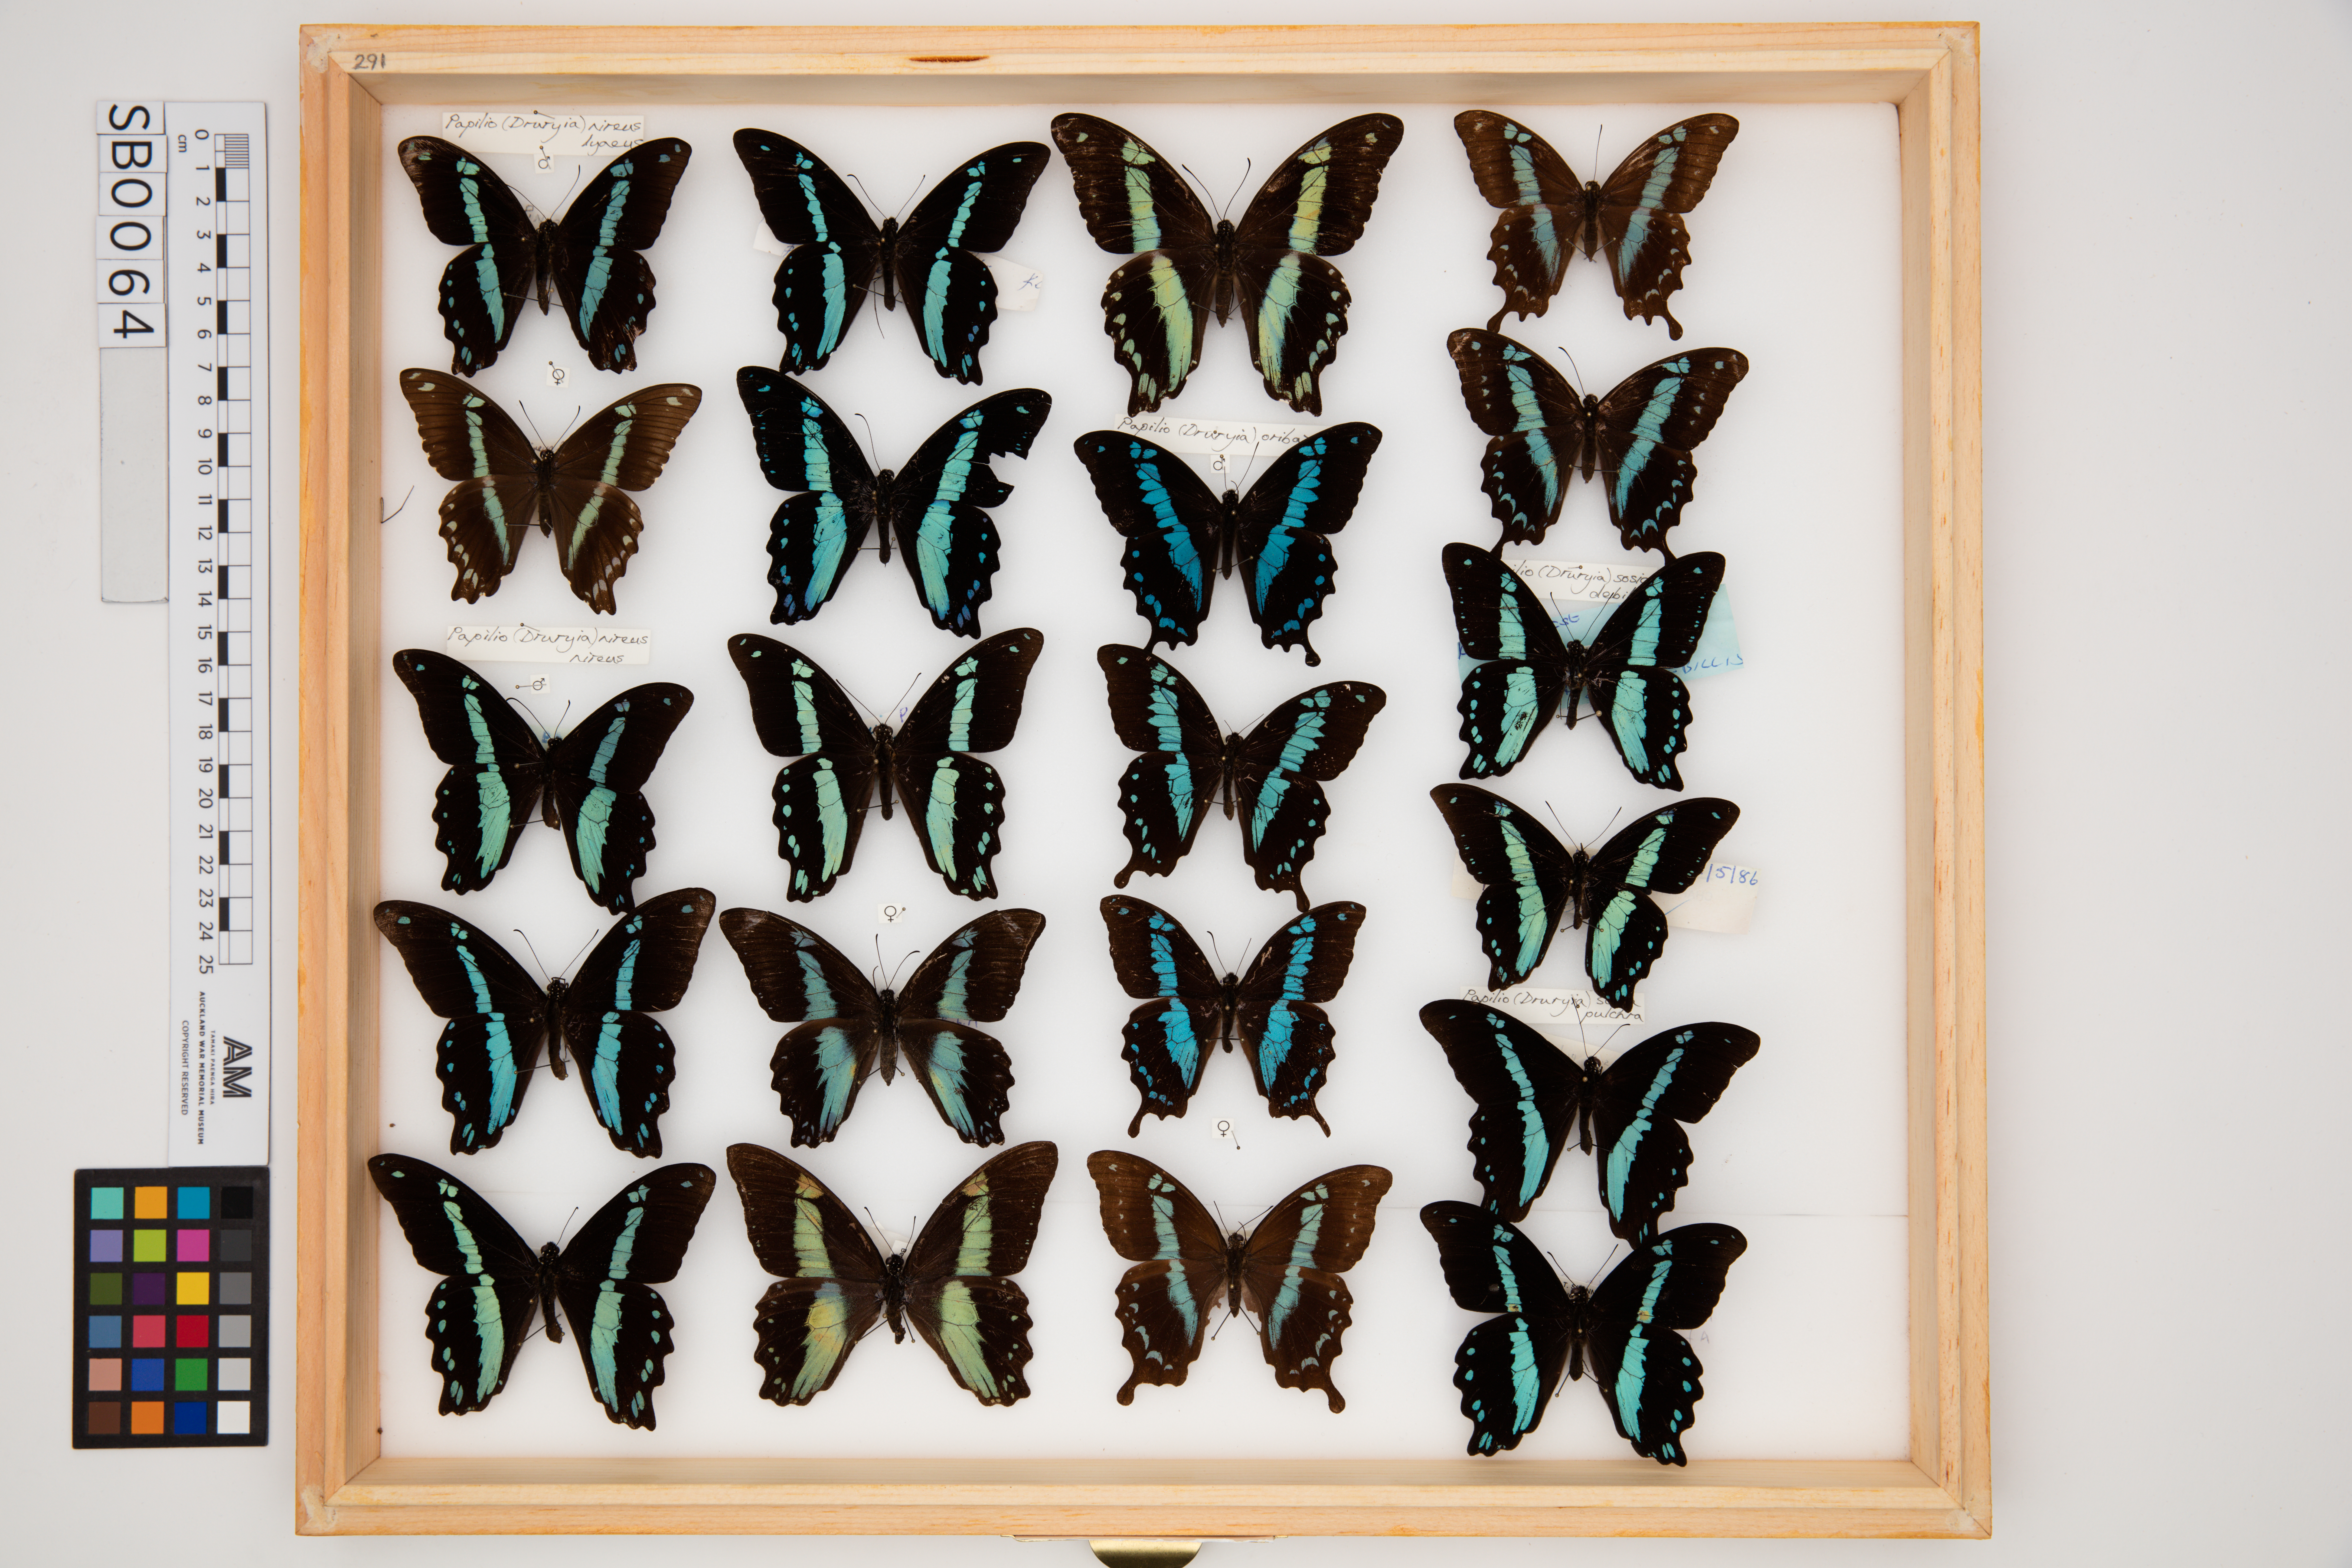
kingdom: Animalia
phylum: Arthropoda
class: Insecta
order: Lepidoptera
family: Papilionidae
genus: Papilio
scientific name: Papilio oribazus
